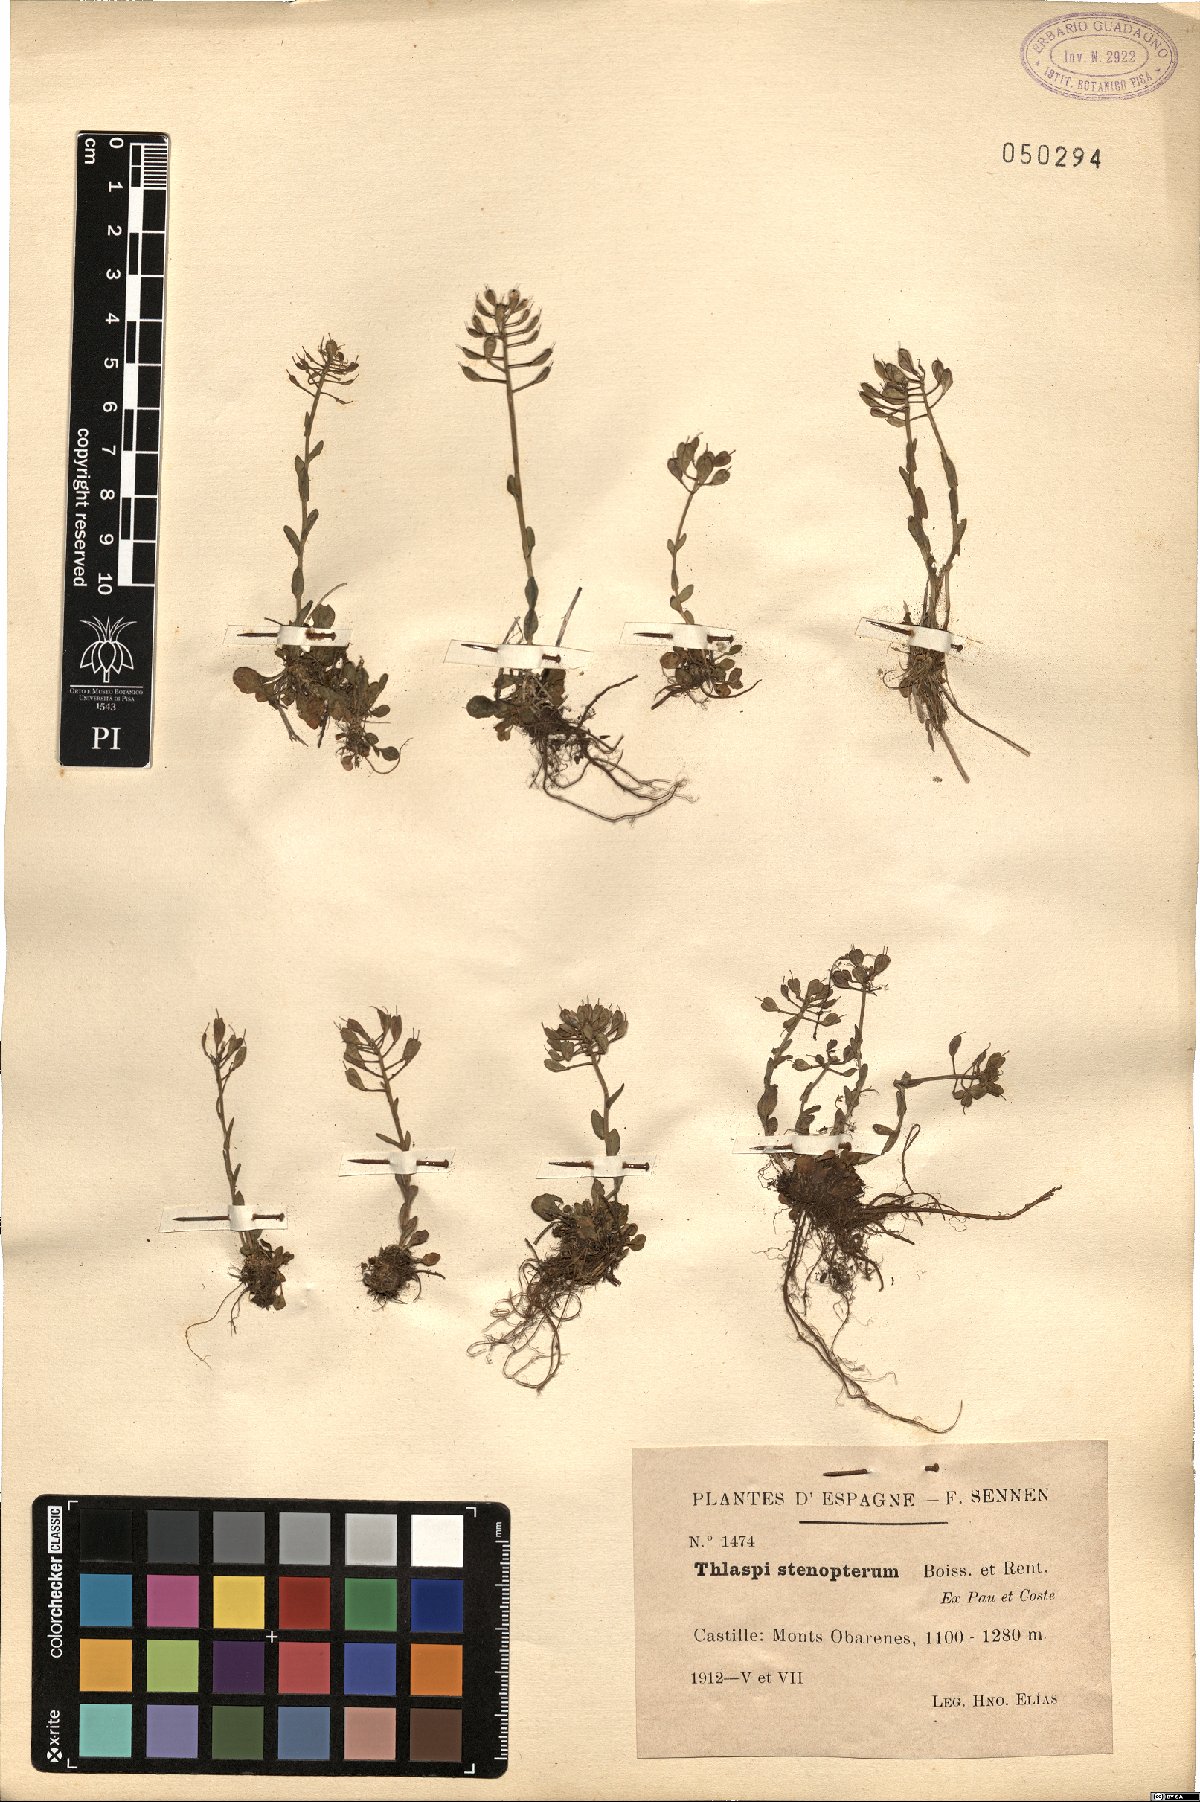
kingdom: Plantae
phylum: Tracheophyta
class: Magnoliopsida
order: Brassicales
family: Brassicaceae
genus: Noccaea
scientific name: Noccaea stenoptera
